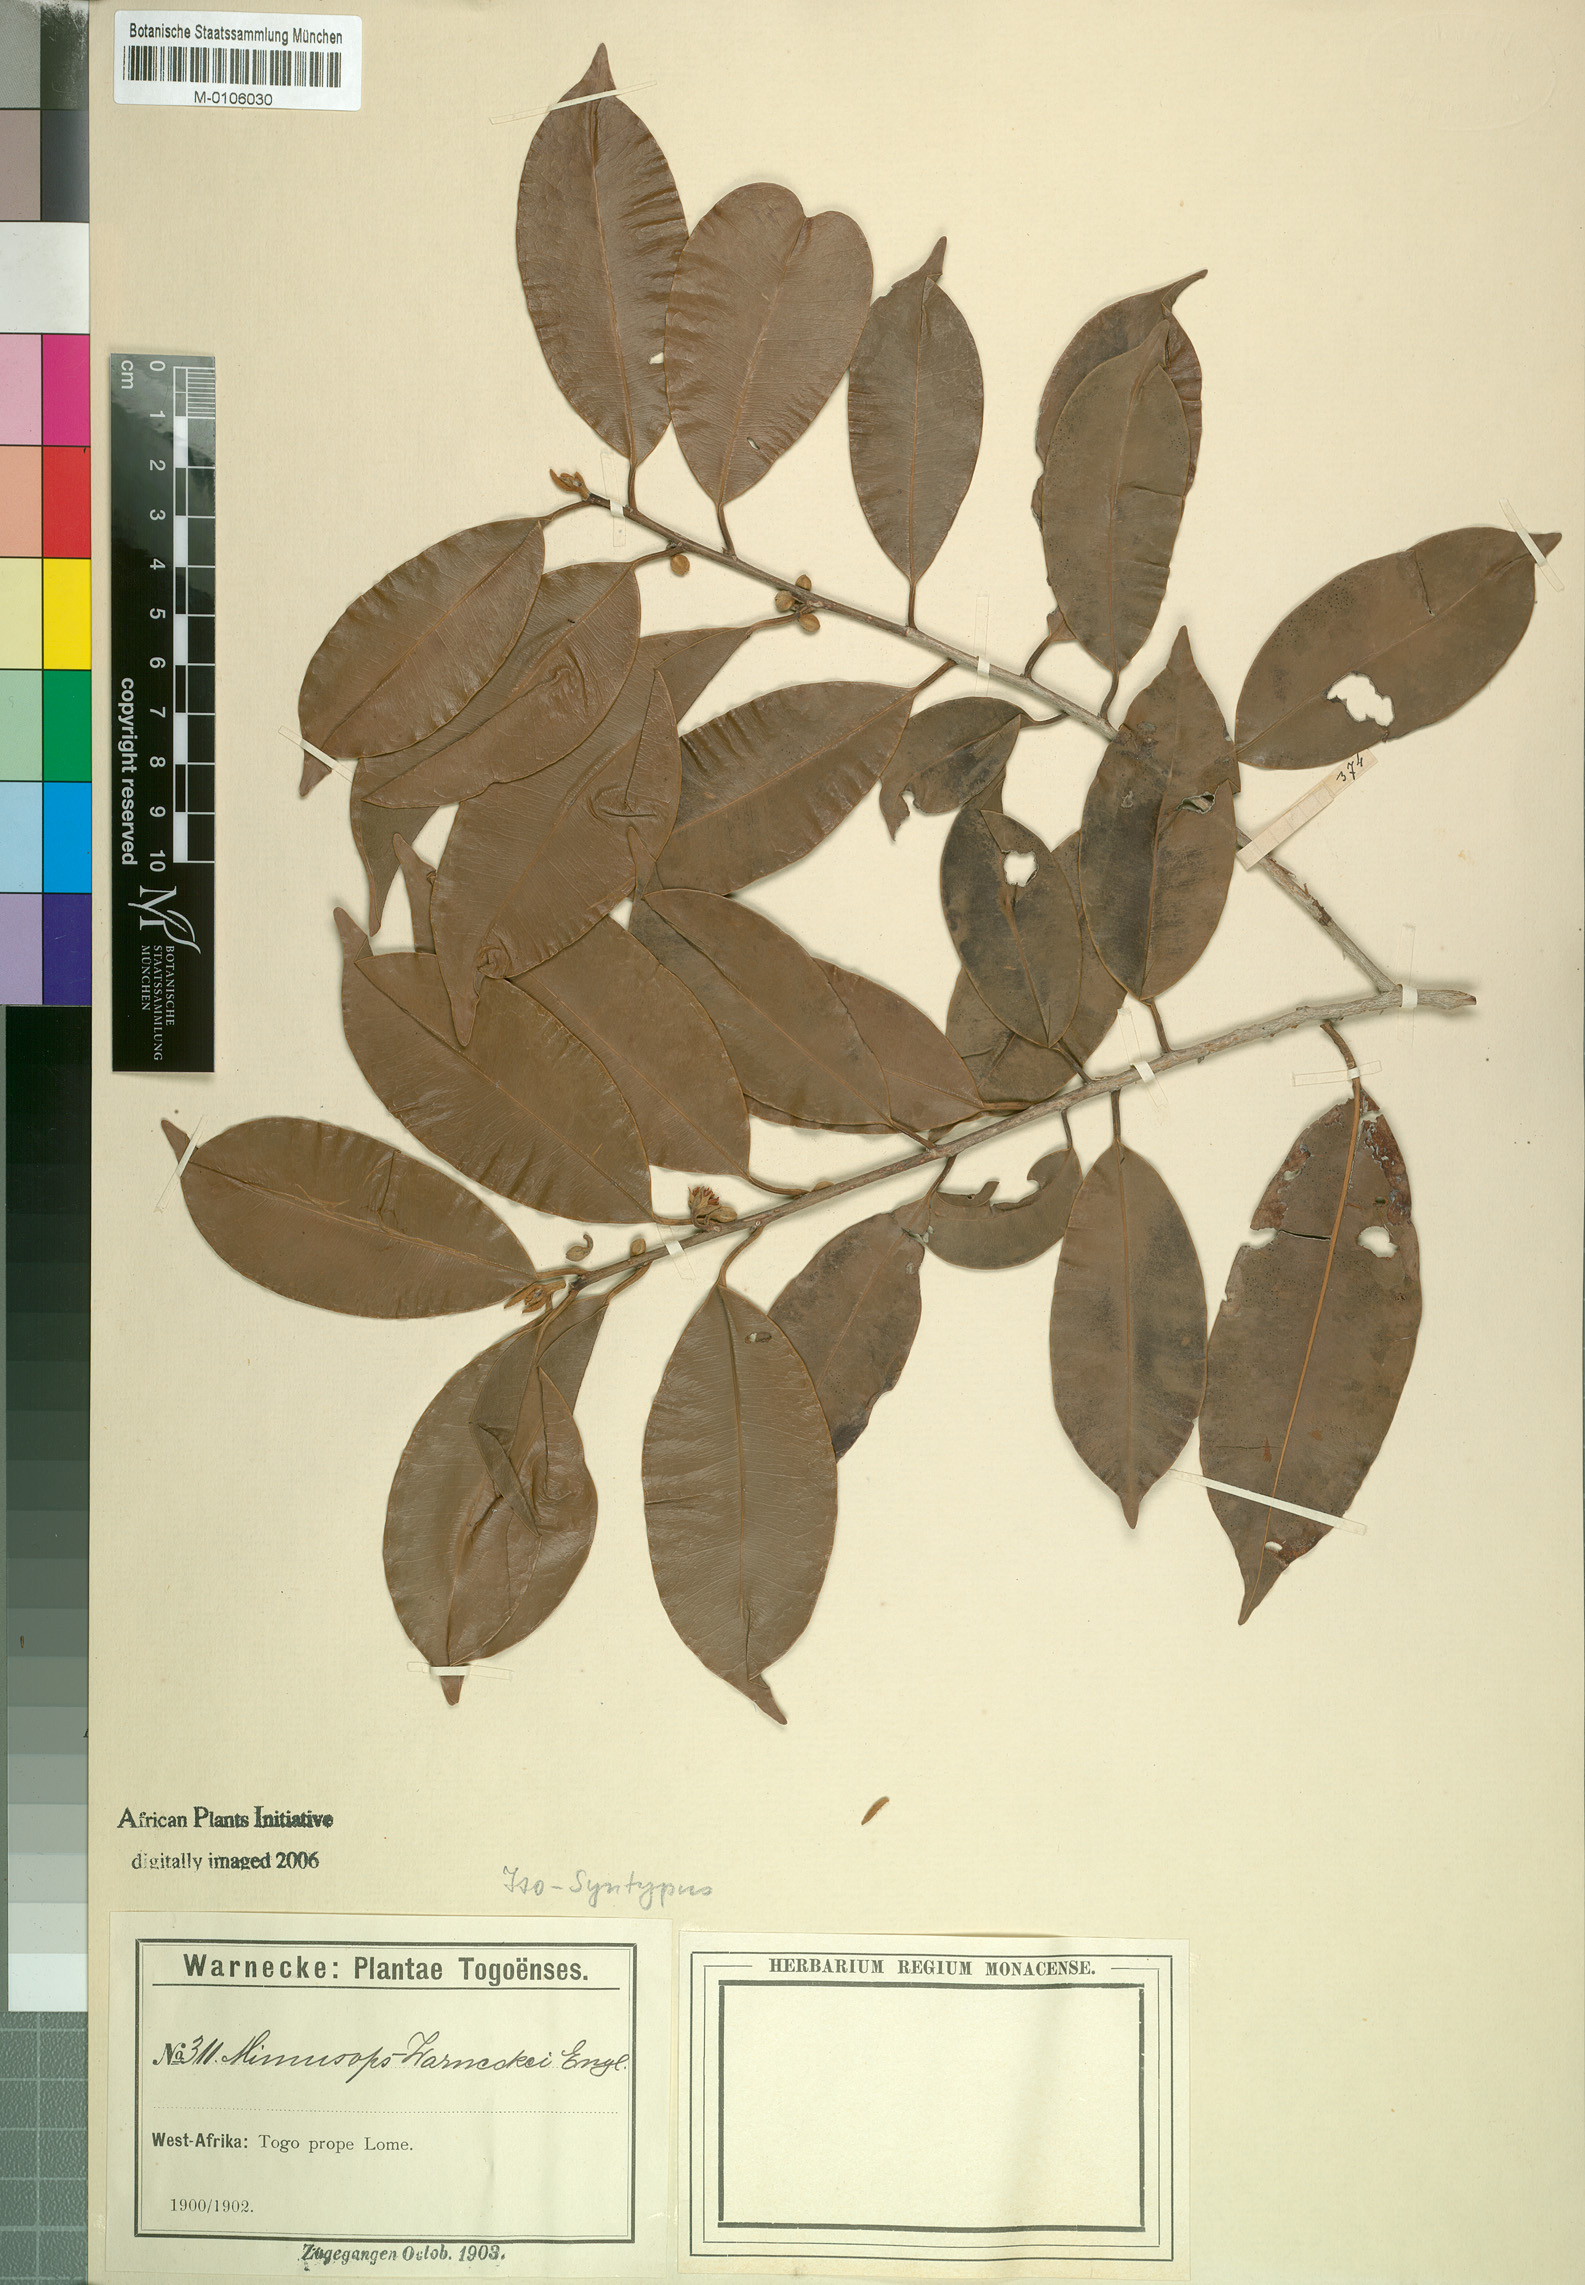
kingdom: Plantae
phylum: Tracheophyta
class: Magnoliopsida
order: Ericales
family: Sapotaceae
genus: Mimusops
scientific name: Mimusops andongensis
